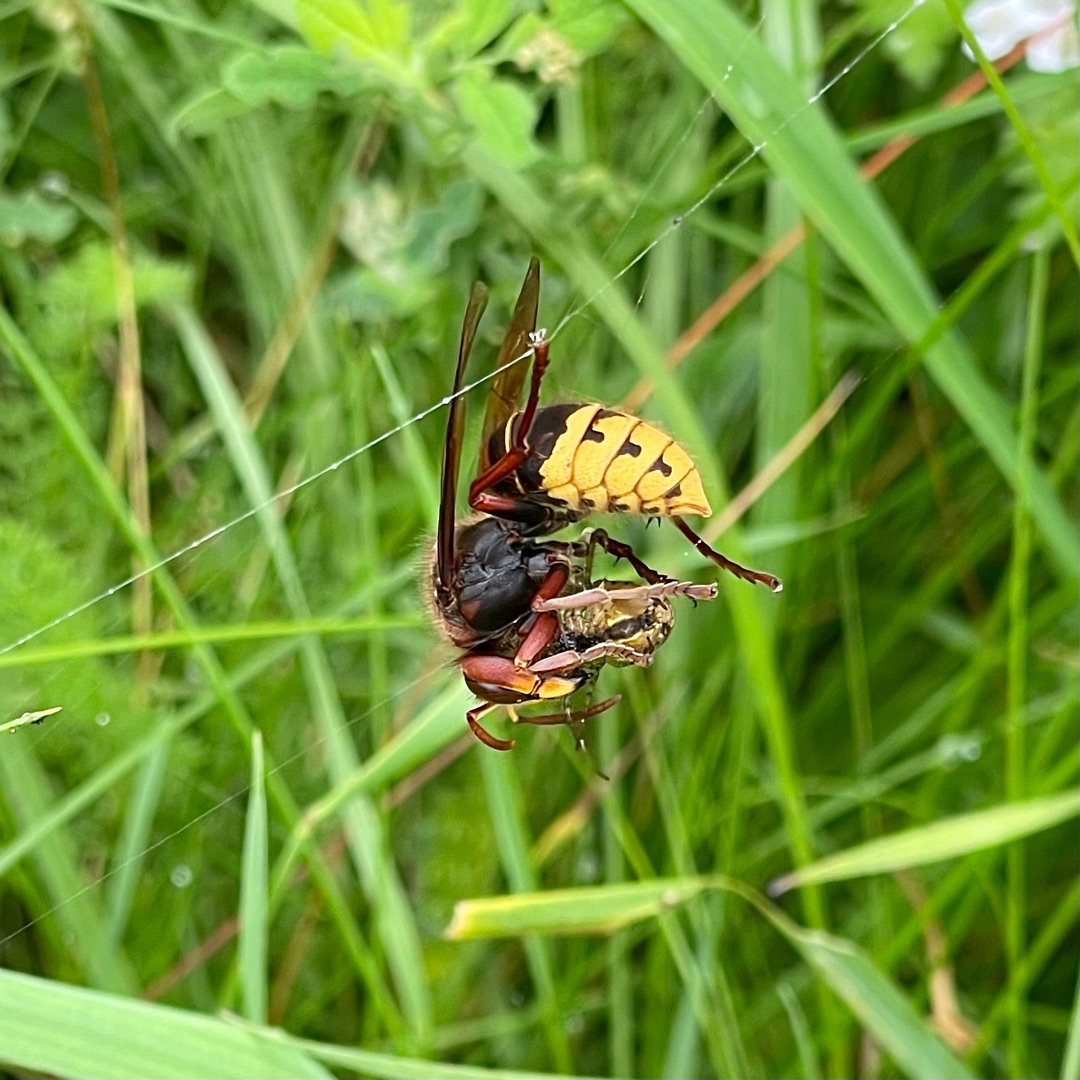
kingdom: Animalia
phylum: Arthropoda
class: Insecta
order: Hymenoptera
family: Vespidae
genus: Vespa
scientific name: Vespa crabro
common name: Stor gedehams
